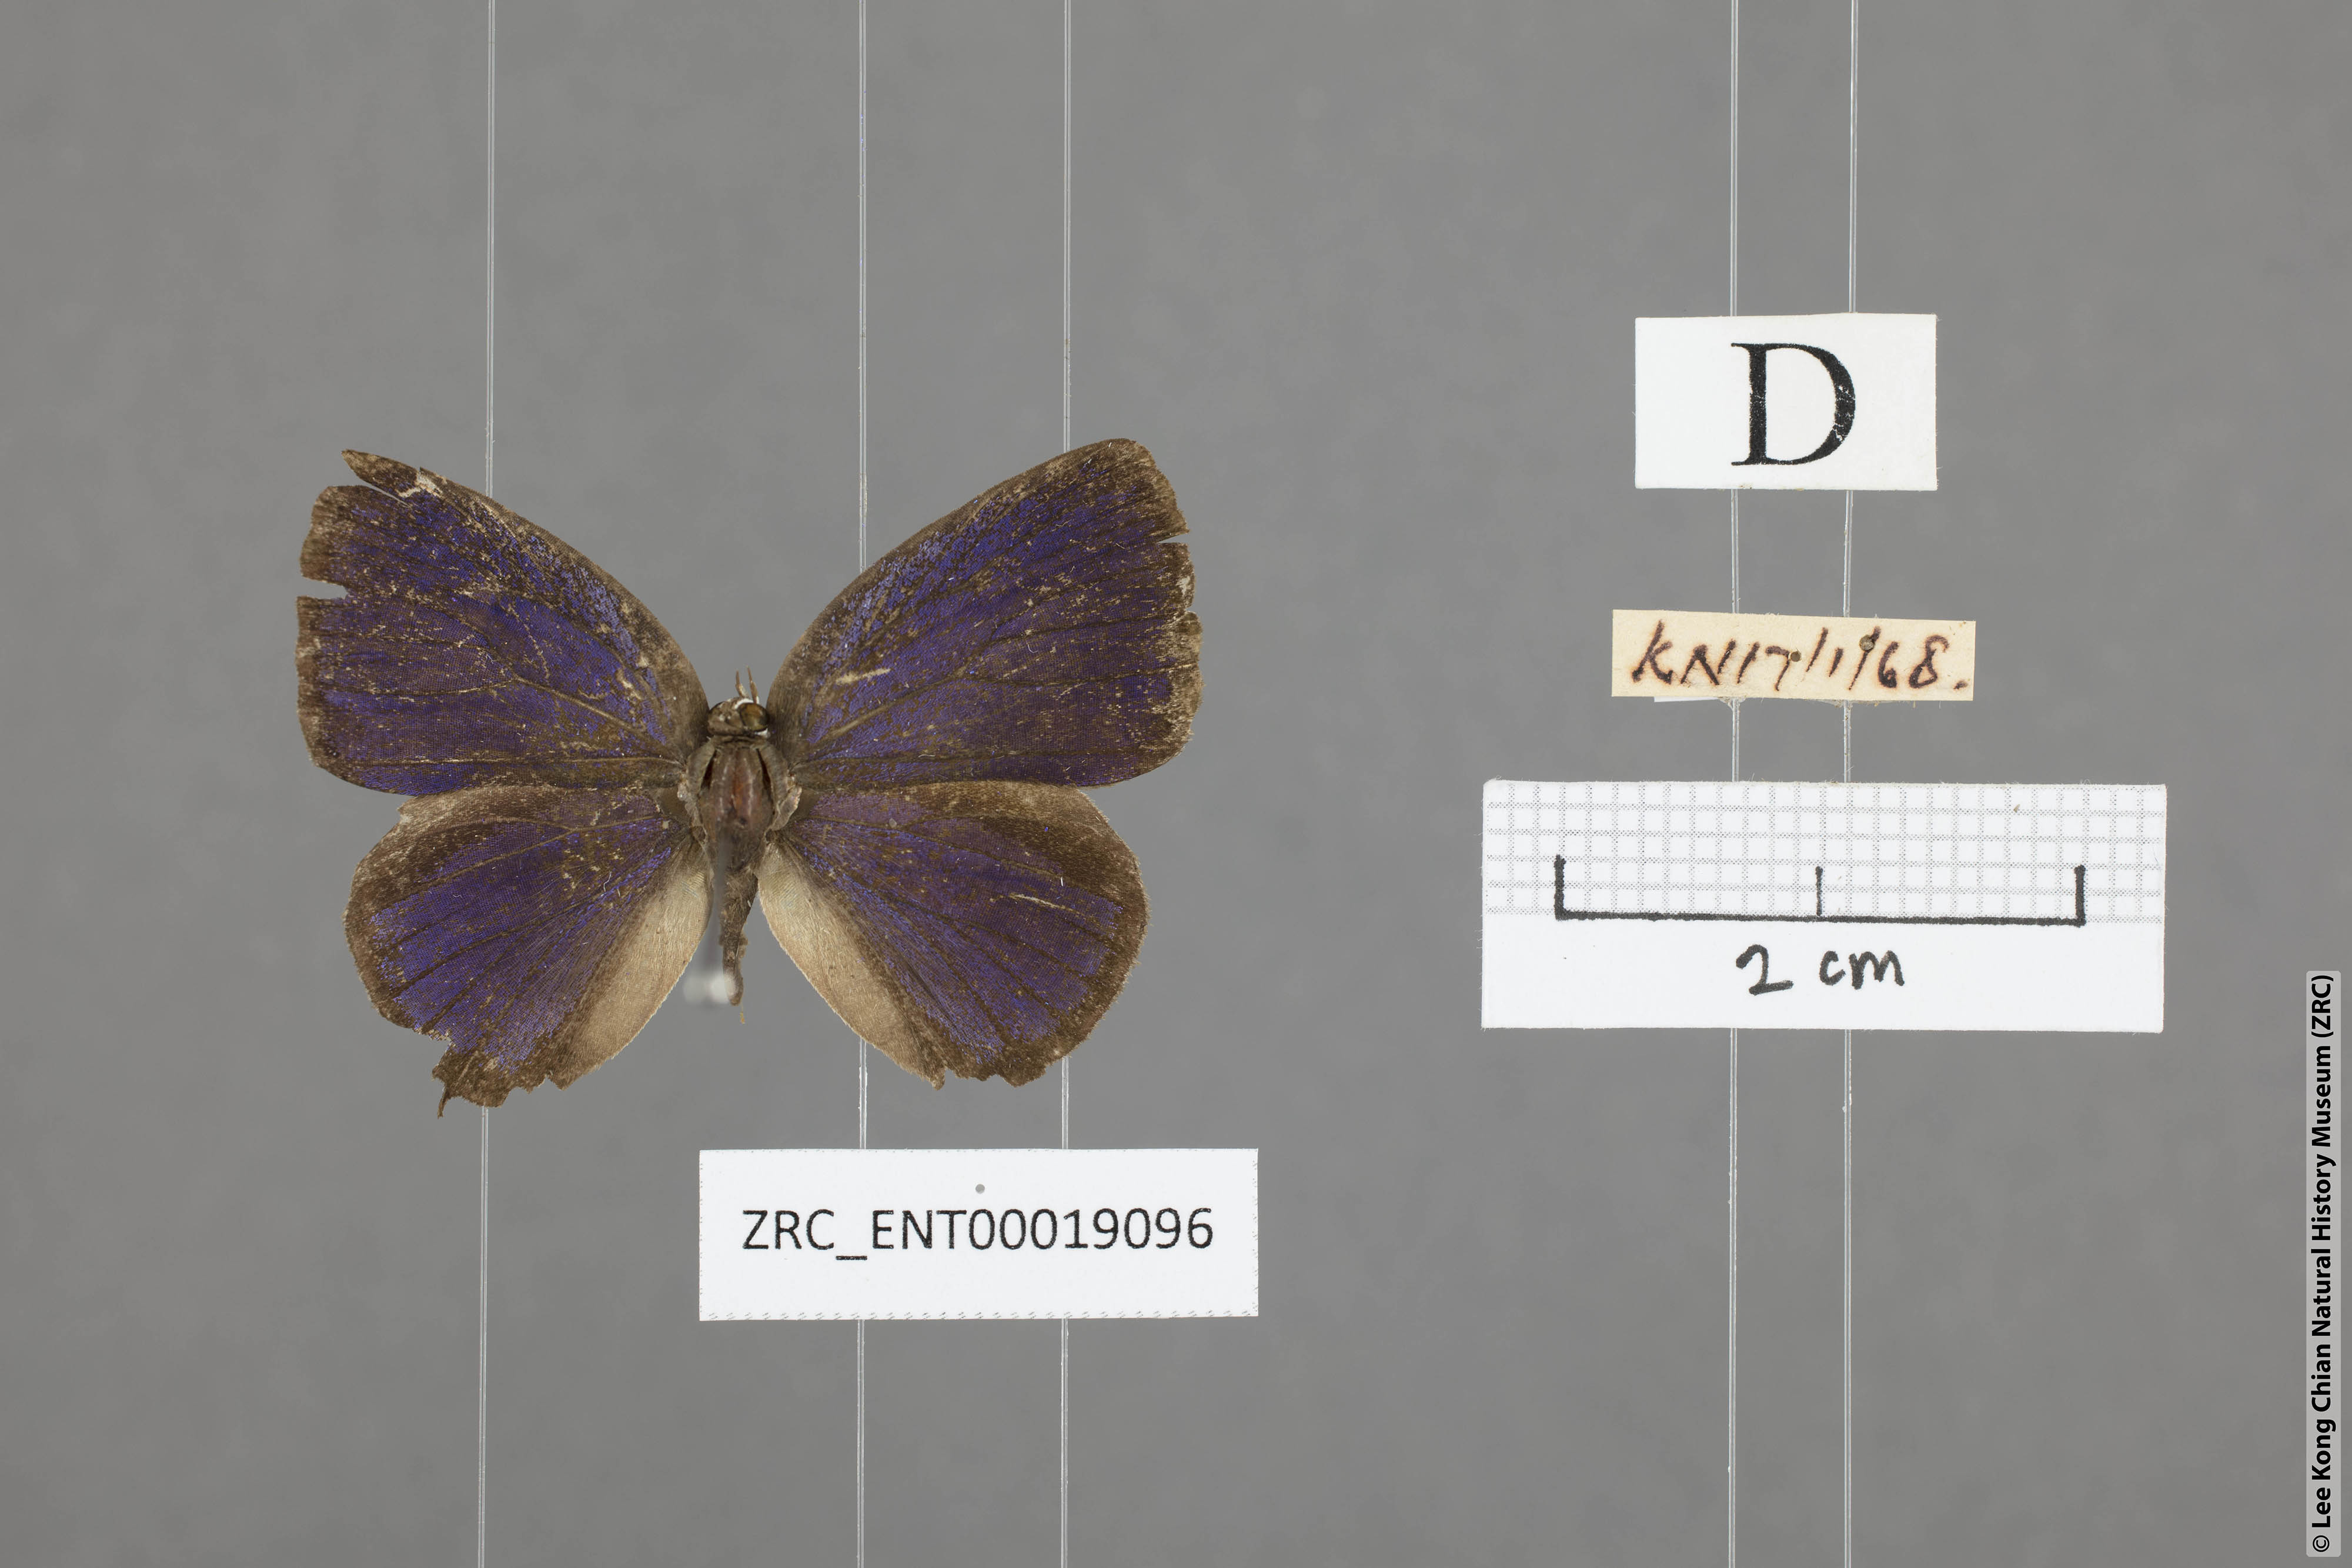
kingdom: Animalia
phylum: Arthropoda
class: Insecta
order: Lepidoptera
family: Lycaenidae
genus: Arhopala
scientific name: Arhopala alitaeus
